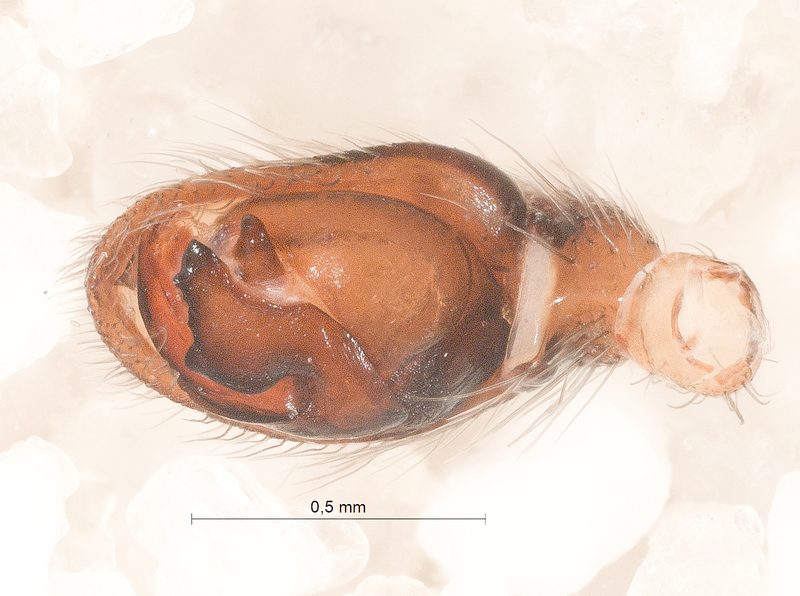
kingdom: Animalia
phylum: Arthropoda
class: Arachnida
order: Araneae
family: Gnaphosidae
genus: Haplodrassus
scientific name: Haplodrassus dalmatensis
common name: Heath grasper
